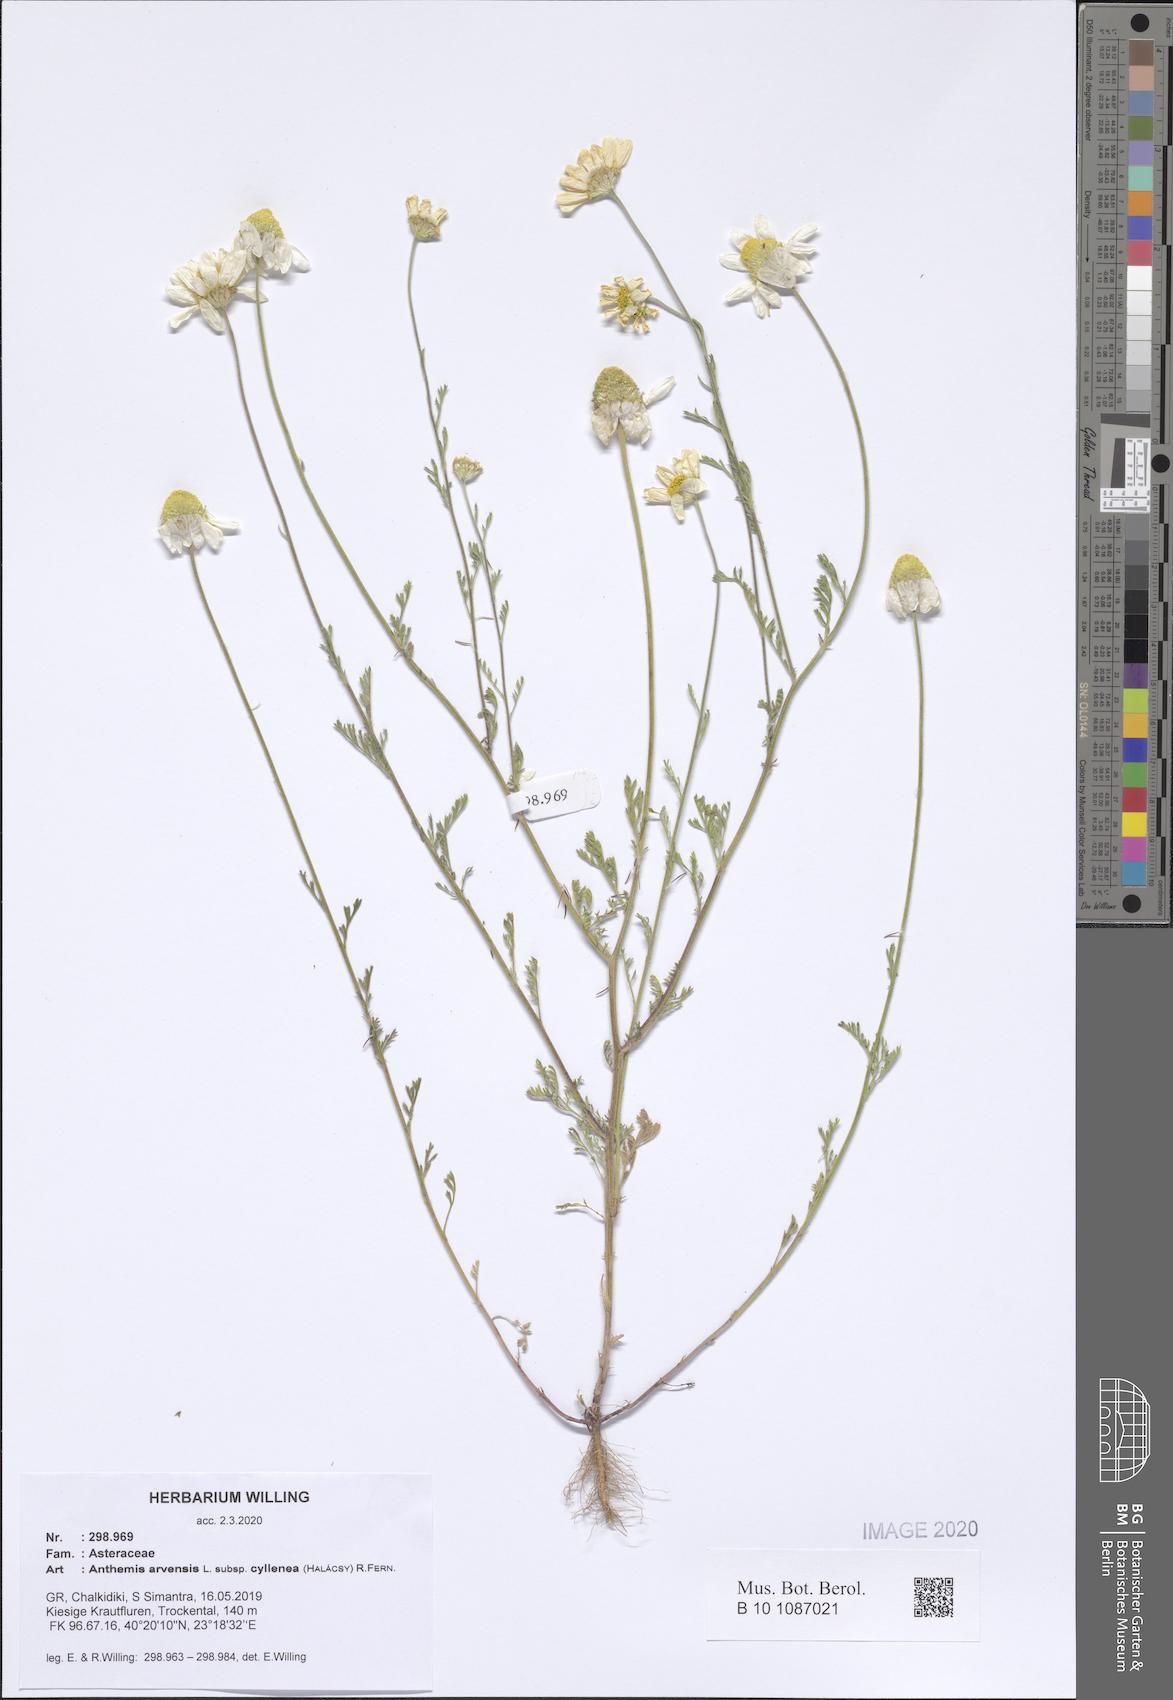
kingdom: Plantae
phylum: Tracheophyta
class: Magnoliopsida
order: Asterales
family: Asteraceae
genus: Anthemis
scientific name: Anthemis arvensis
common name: Corn chamomile
